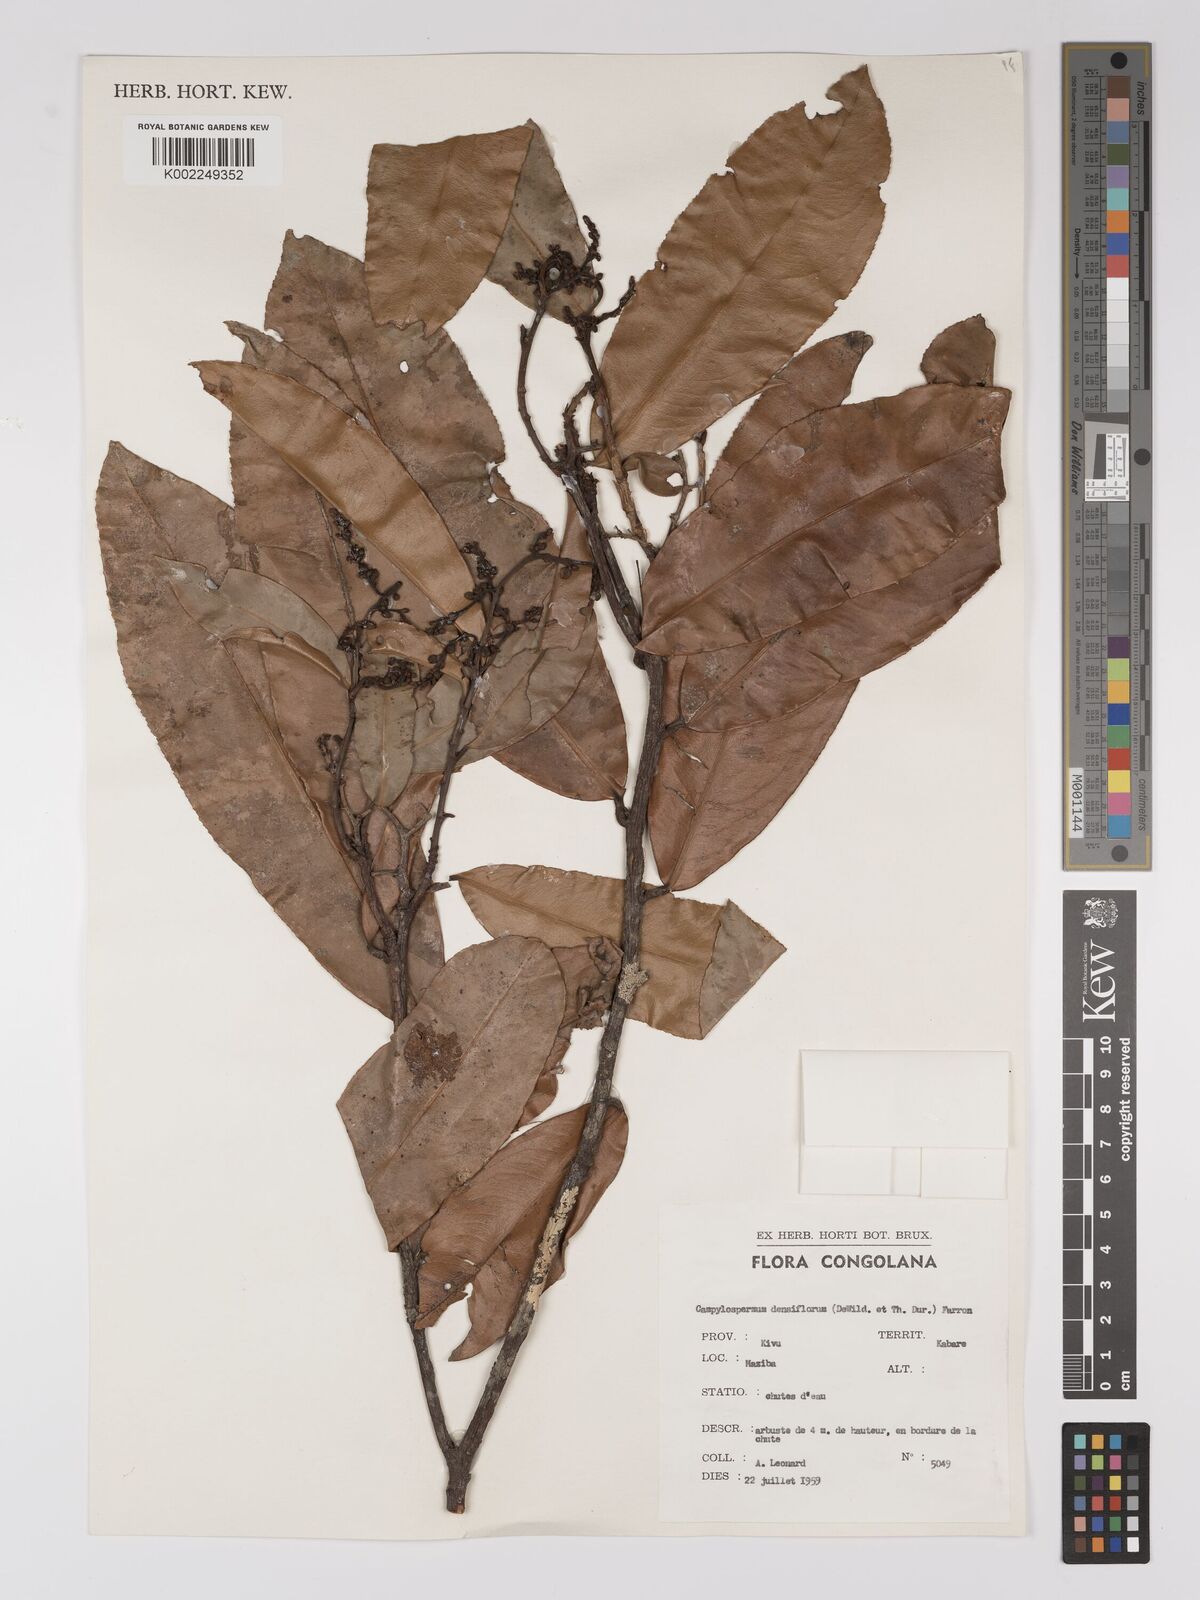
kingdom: Plantae
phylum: Tracheophyta
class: Magnoliopsida
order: Malpighiales
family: Ochnaceae
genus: Gomphia
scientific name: Gomphia densiflora
